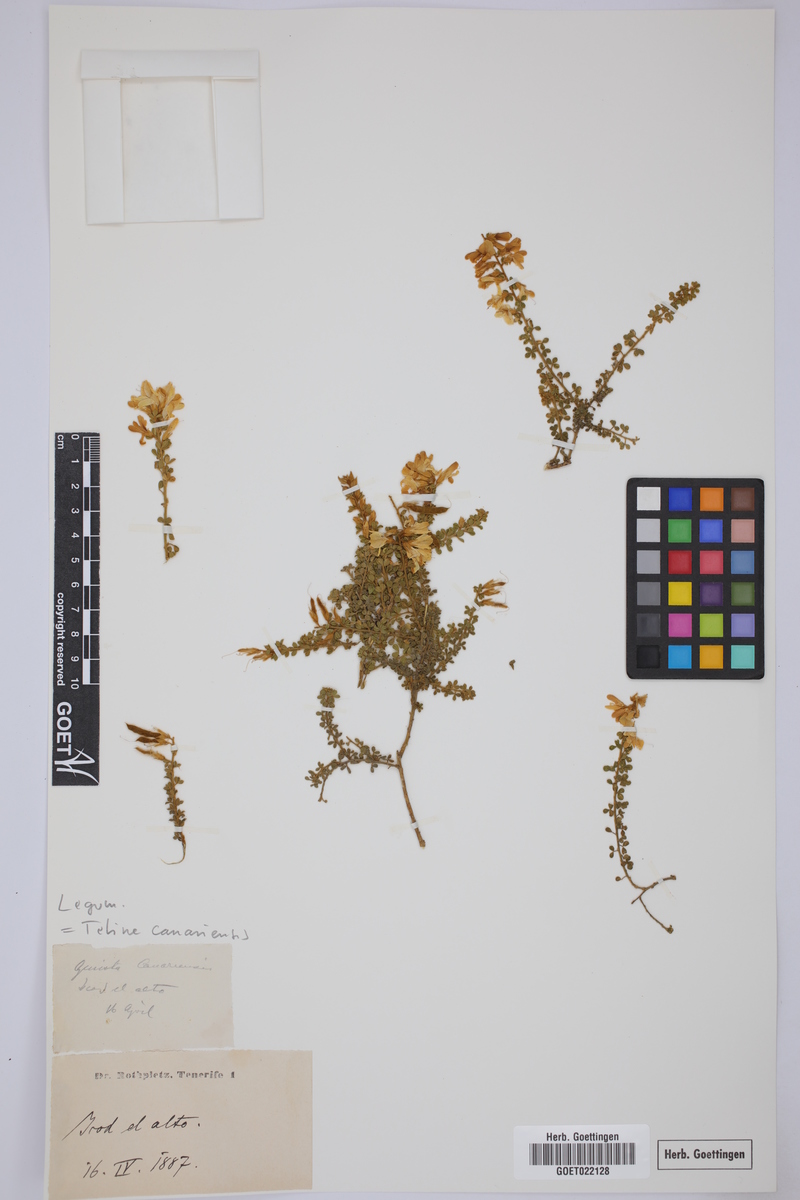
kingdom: Plantae
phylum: Tracheophyta
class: Magnoliopsida
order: Fabales
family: Fabaceae
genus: Genista
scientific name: Genista canariensis
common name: Canary broom
